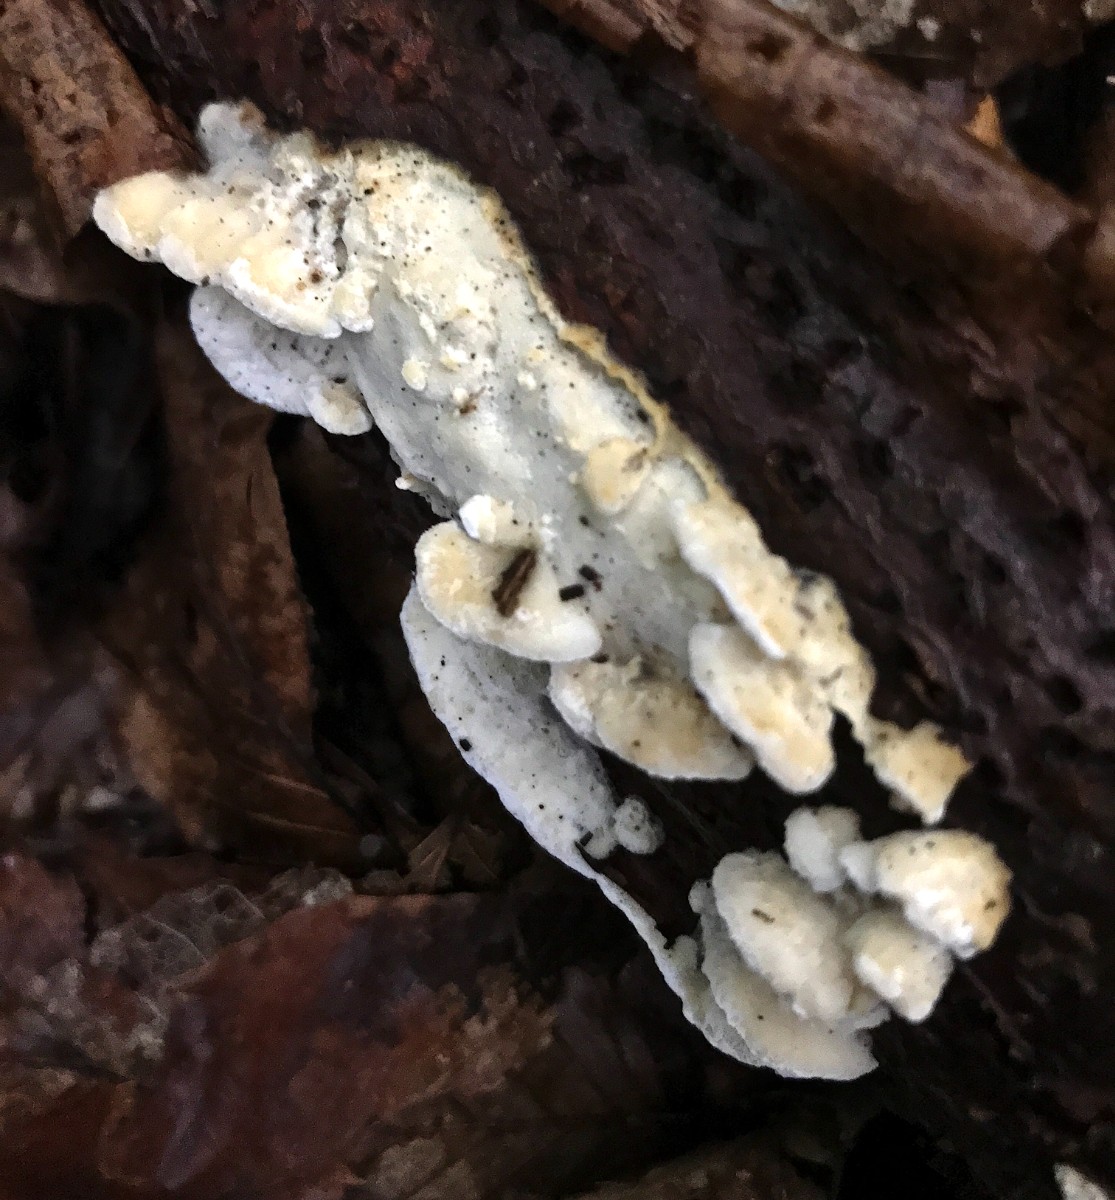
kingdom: Fungi
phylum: Basidiomycota
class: Agaricomycetes
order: Polyporales
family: Incrustoporiaceae
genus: Skeletocutis
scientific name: Skeletocutis nemoralis
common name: stor krystalporesvamp
